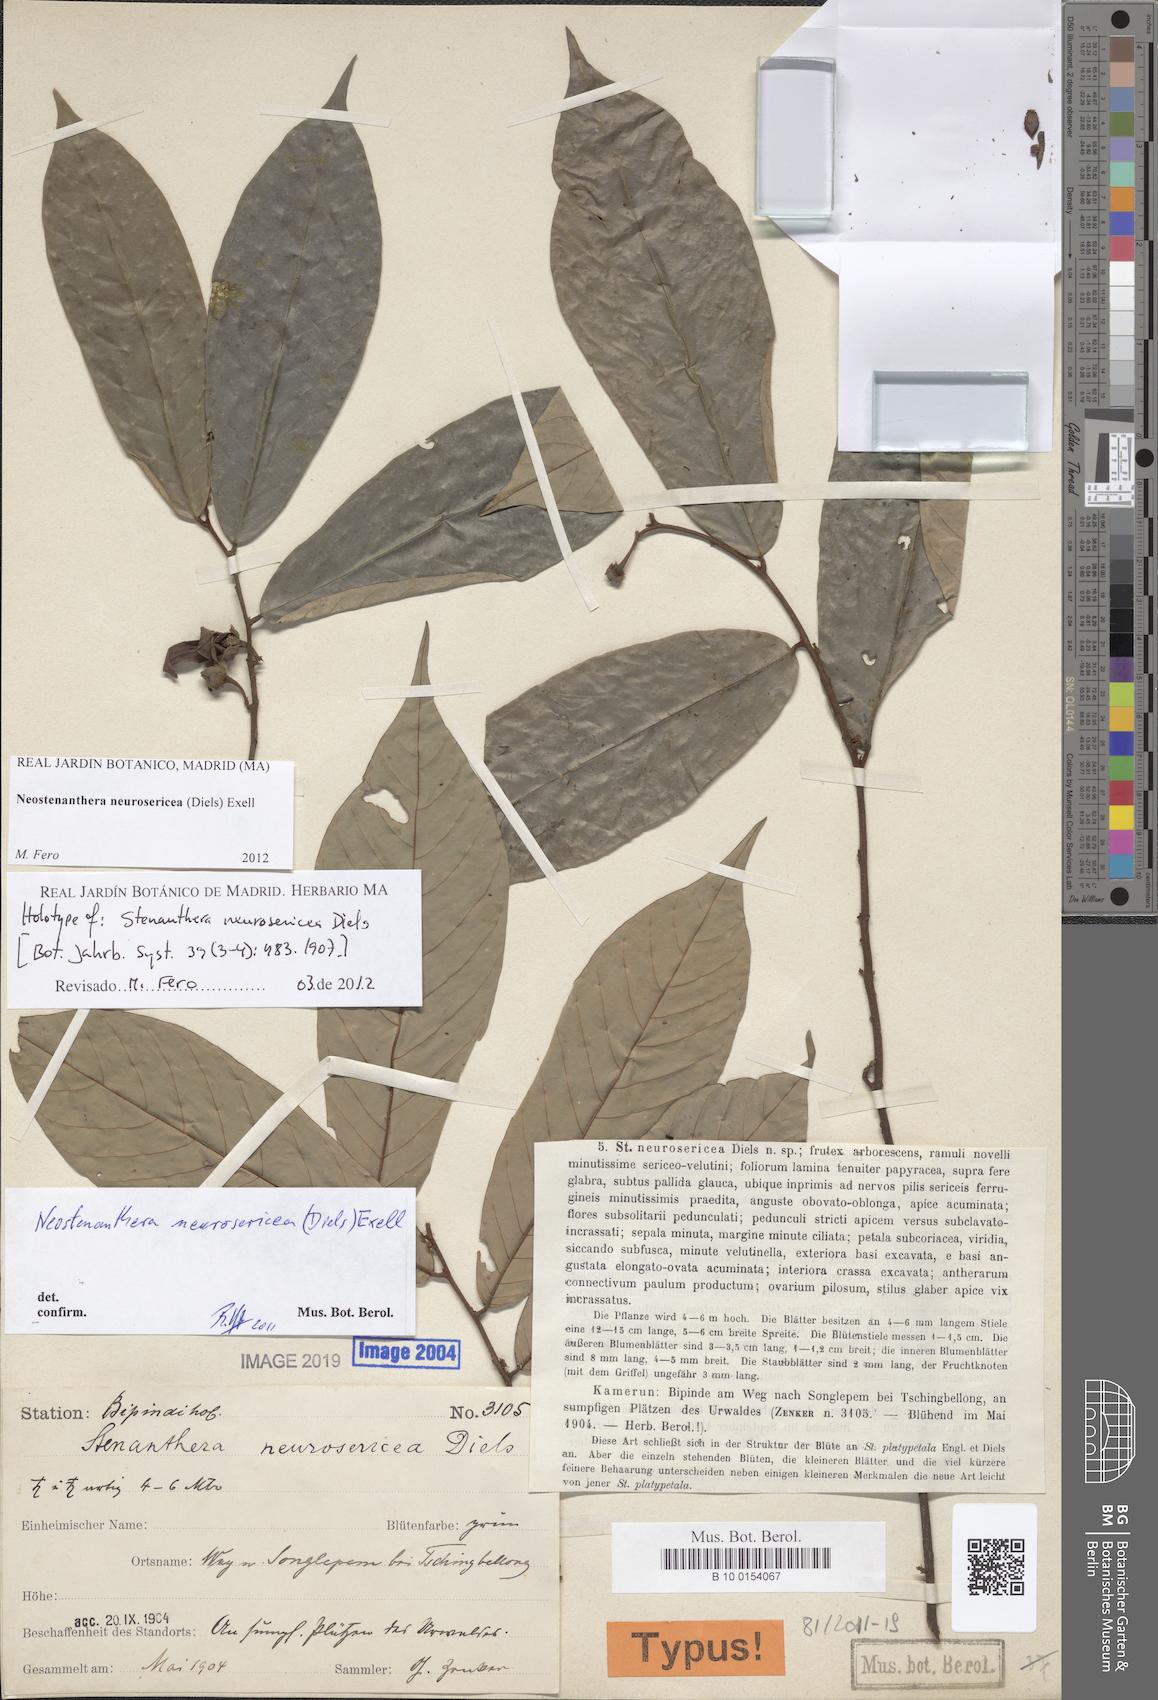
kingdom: Plantae
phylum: Tracheophyta
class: Magnoliopsida
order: Magnoliales
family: Annonaceae
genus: Neostenanthera
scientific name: Neostenanthera neurosericea
